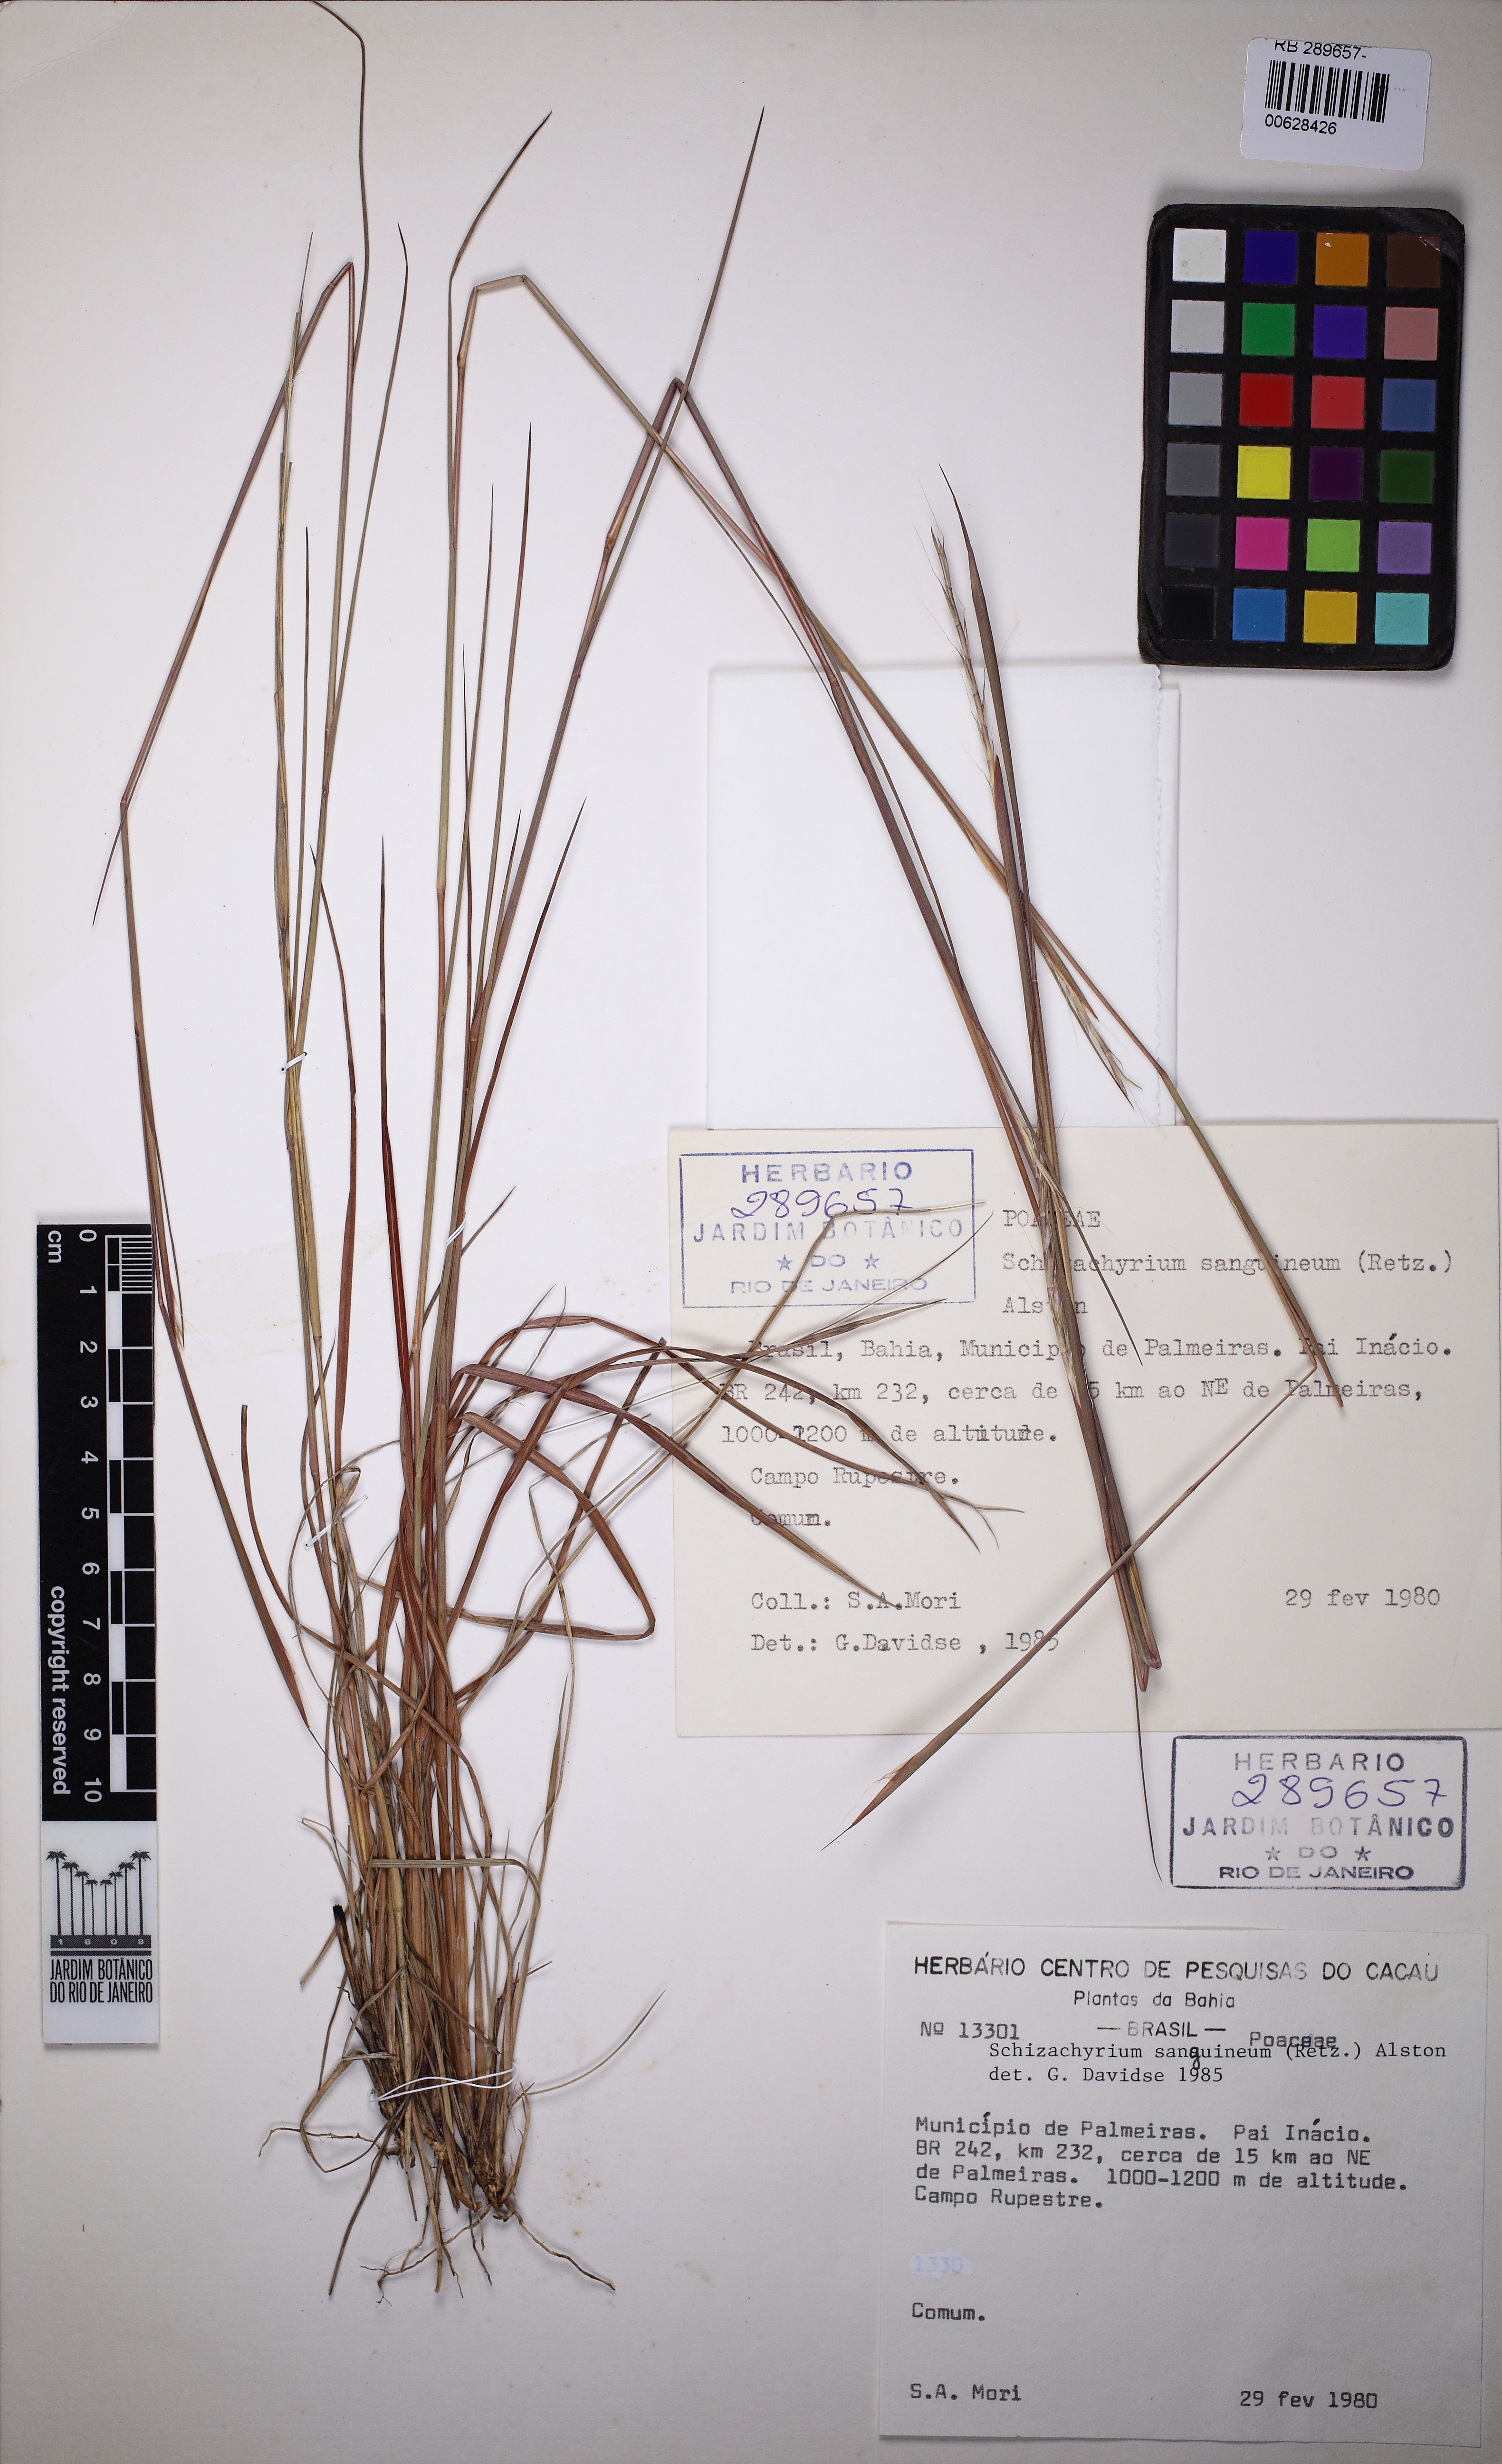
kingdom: Plantae
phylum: Tracheophyta
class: Liliopsida
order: Poales
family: Poaceae
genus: Schizachyrium
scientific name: Schizachyrium sanguineum
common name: Crimson bluestem
